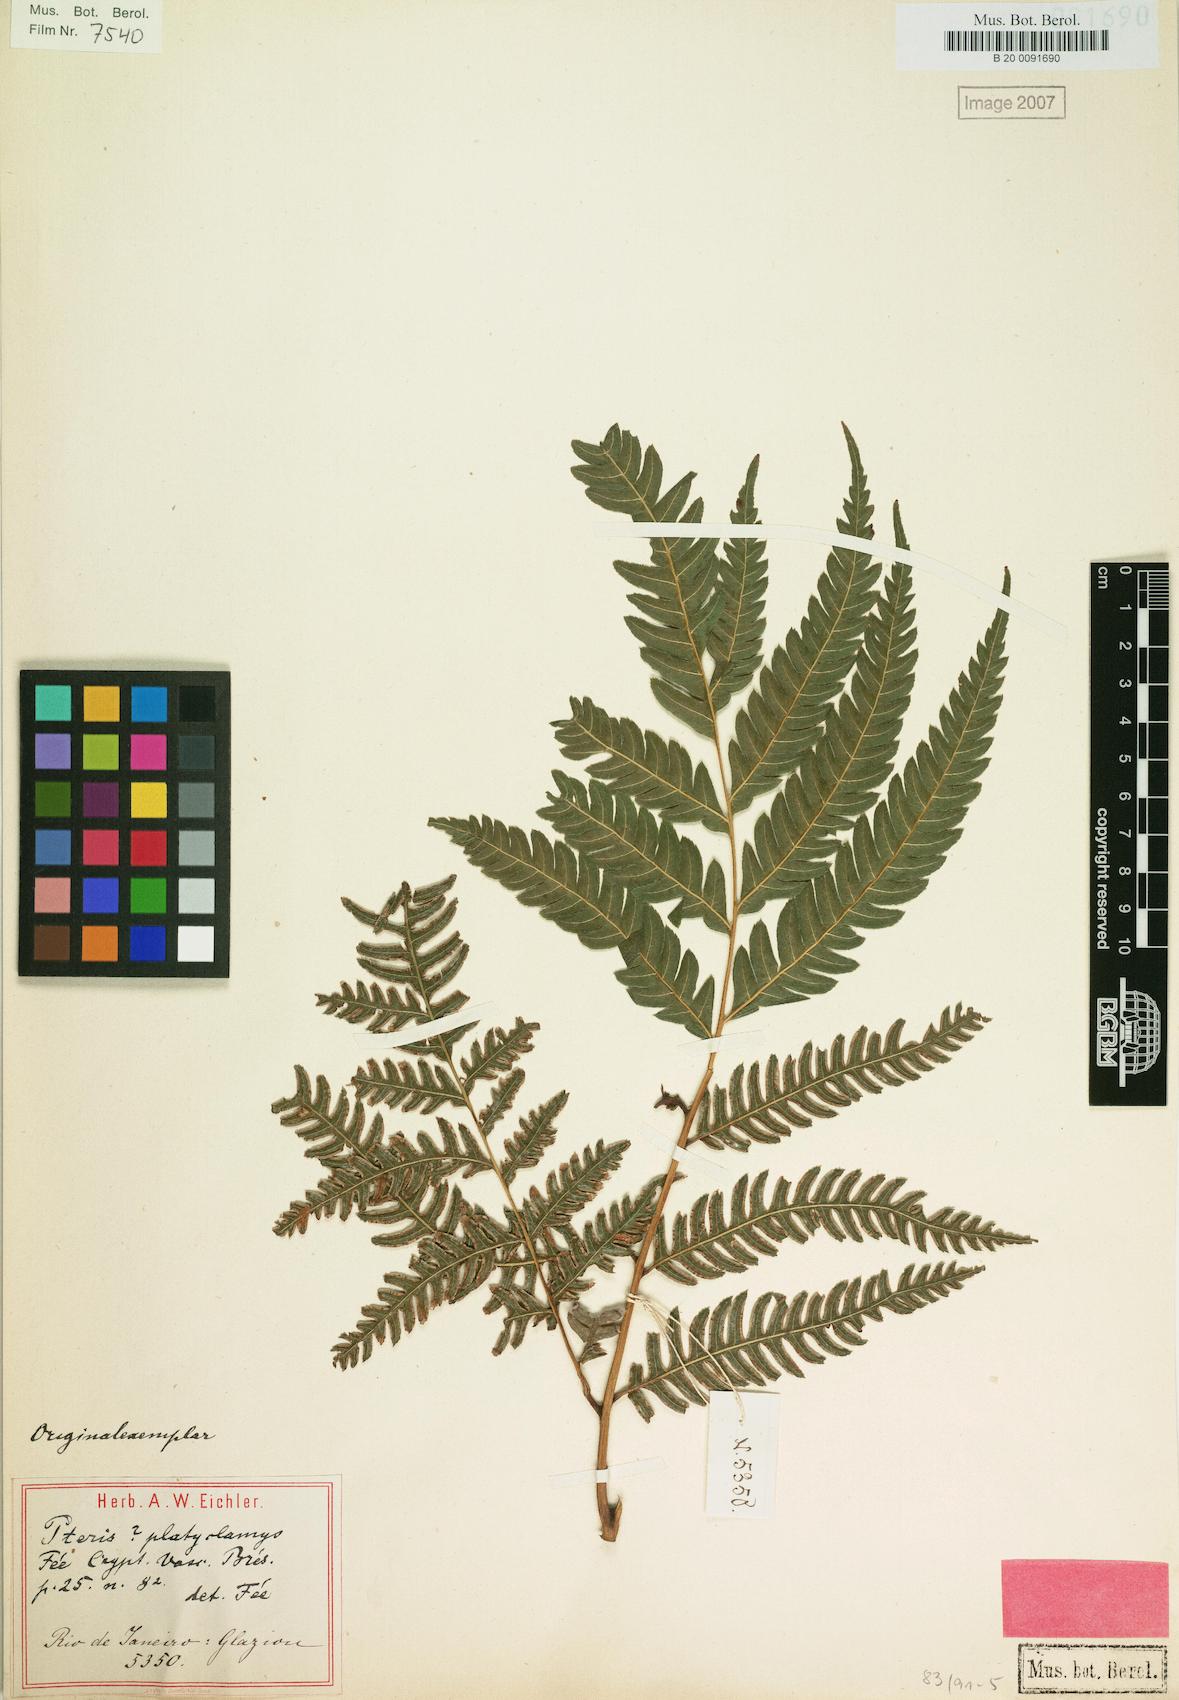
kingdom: Plantae
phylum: Tracheophyta
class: Polypodiopsida
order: Polypodiales
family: Pteridaceae
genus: Pteris
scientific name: Pteris deflexa
